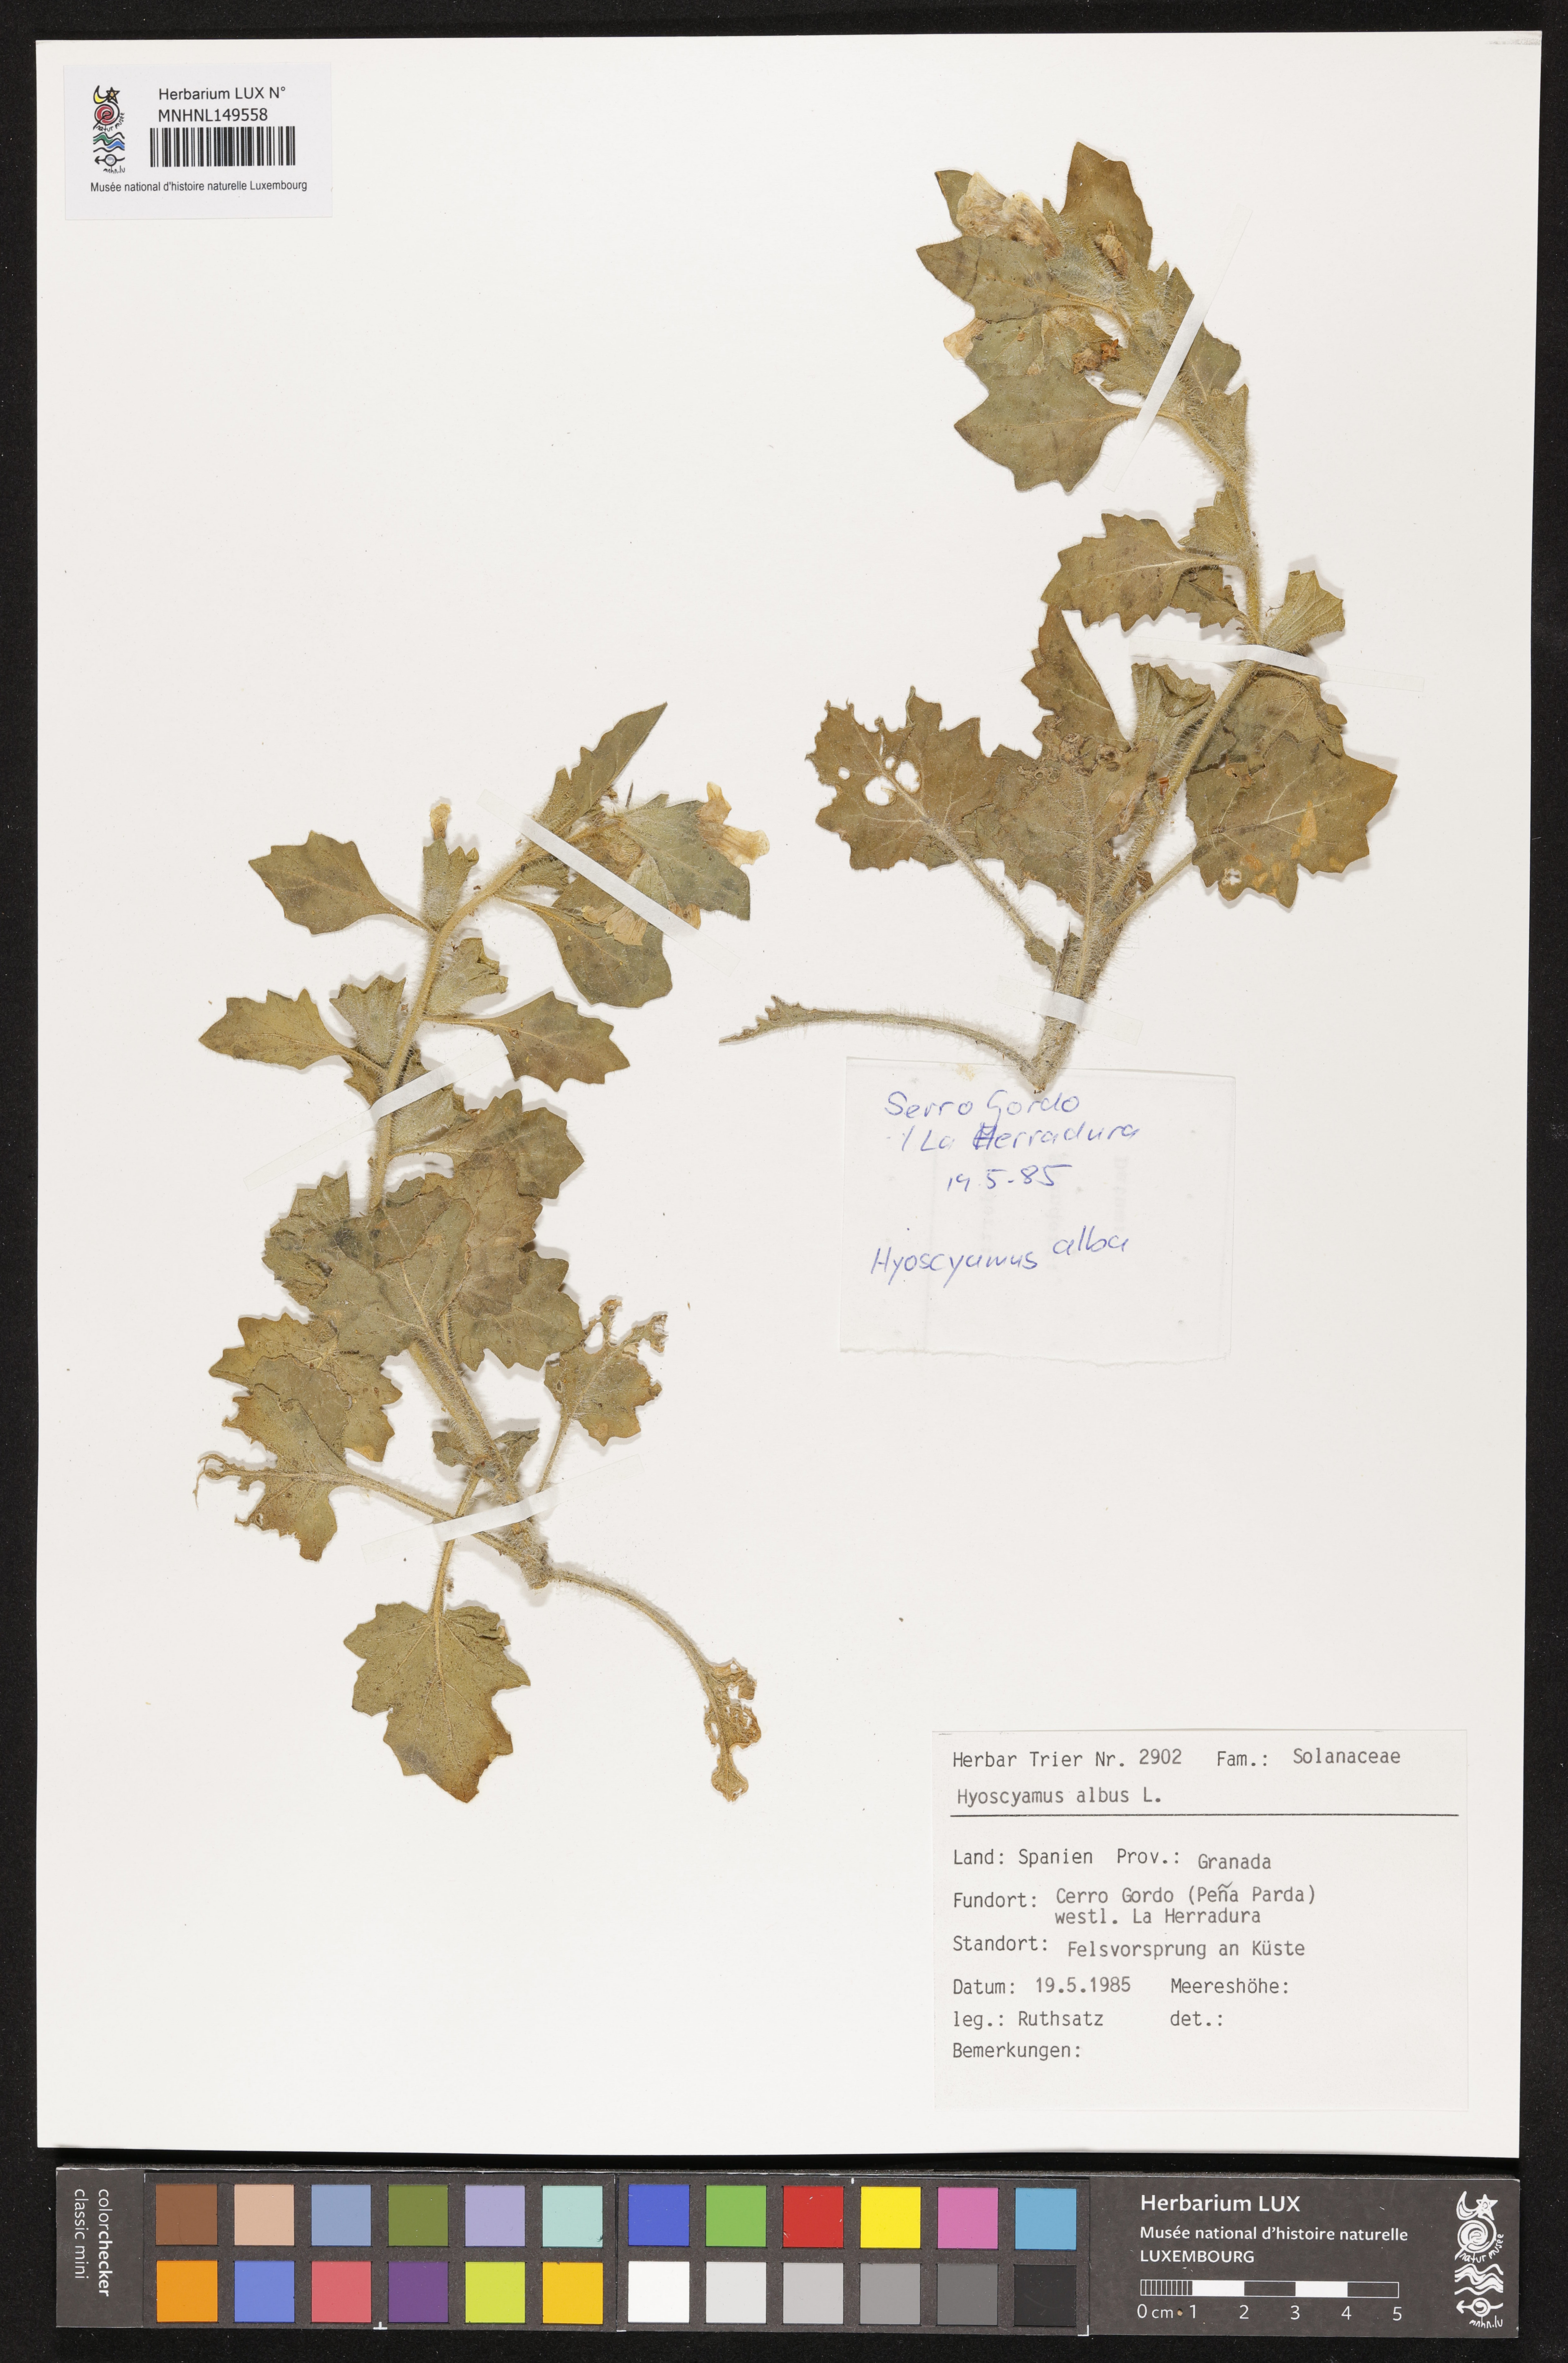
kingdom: Plantae
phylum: Tracheophyta
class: Magnoliopsida
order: Solanales
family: Solanaceae
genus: Hyoscyamus
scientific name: Hyoscyamus albus
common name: White henbane
